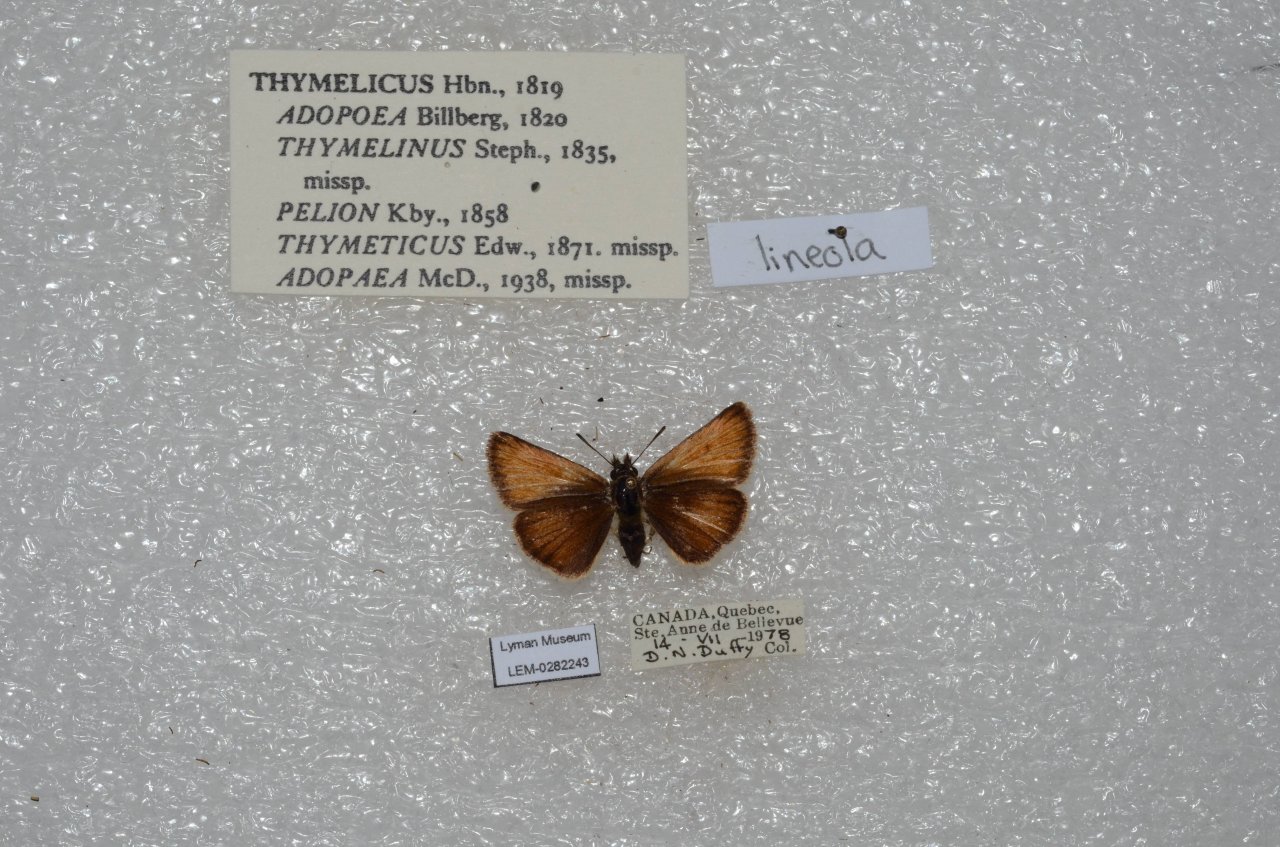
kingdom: Animalia
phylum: Arthropoda
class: Insecta
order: Lepidoptera
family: Hesperiidae
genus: Thymelicus
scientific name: Thymelicus lineola
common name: European Skipper
